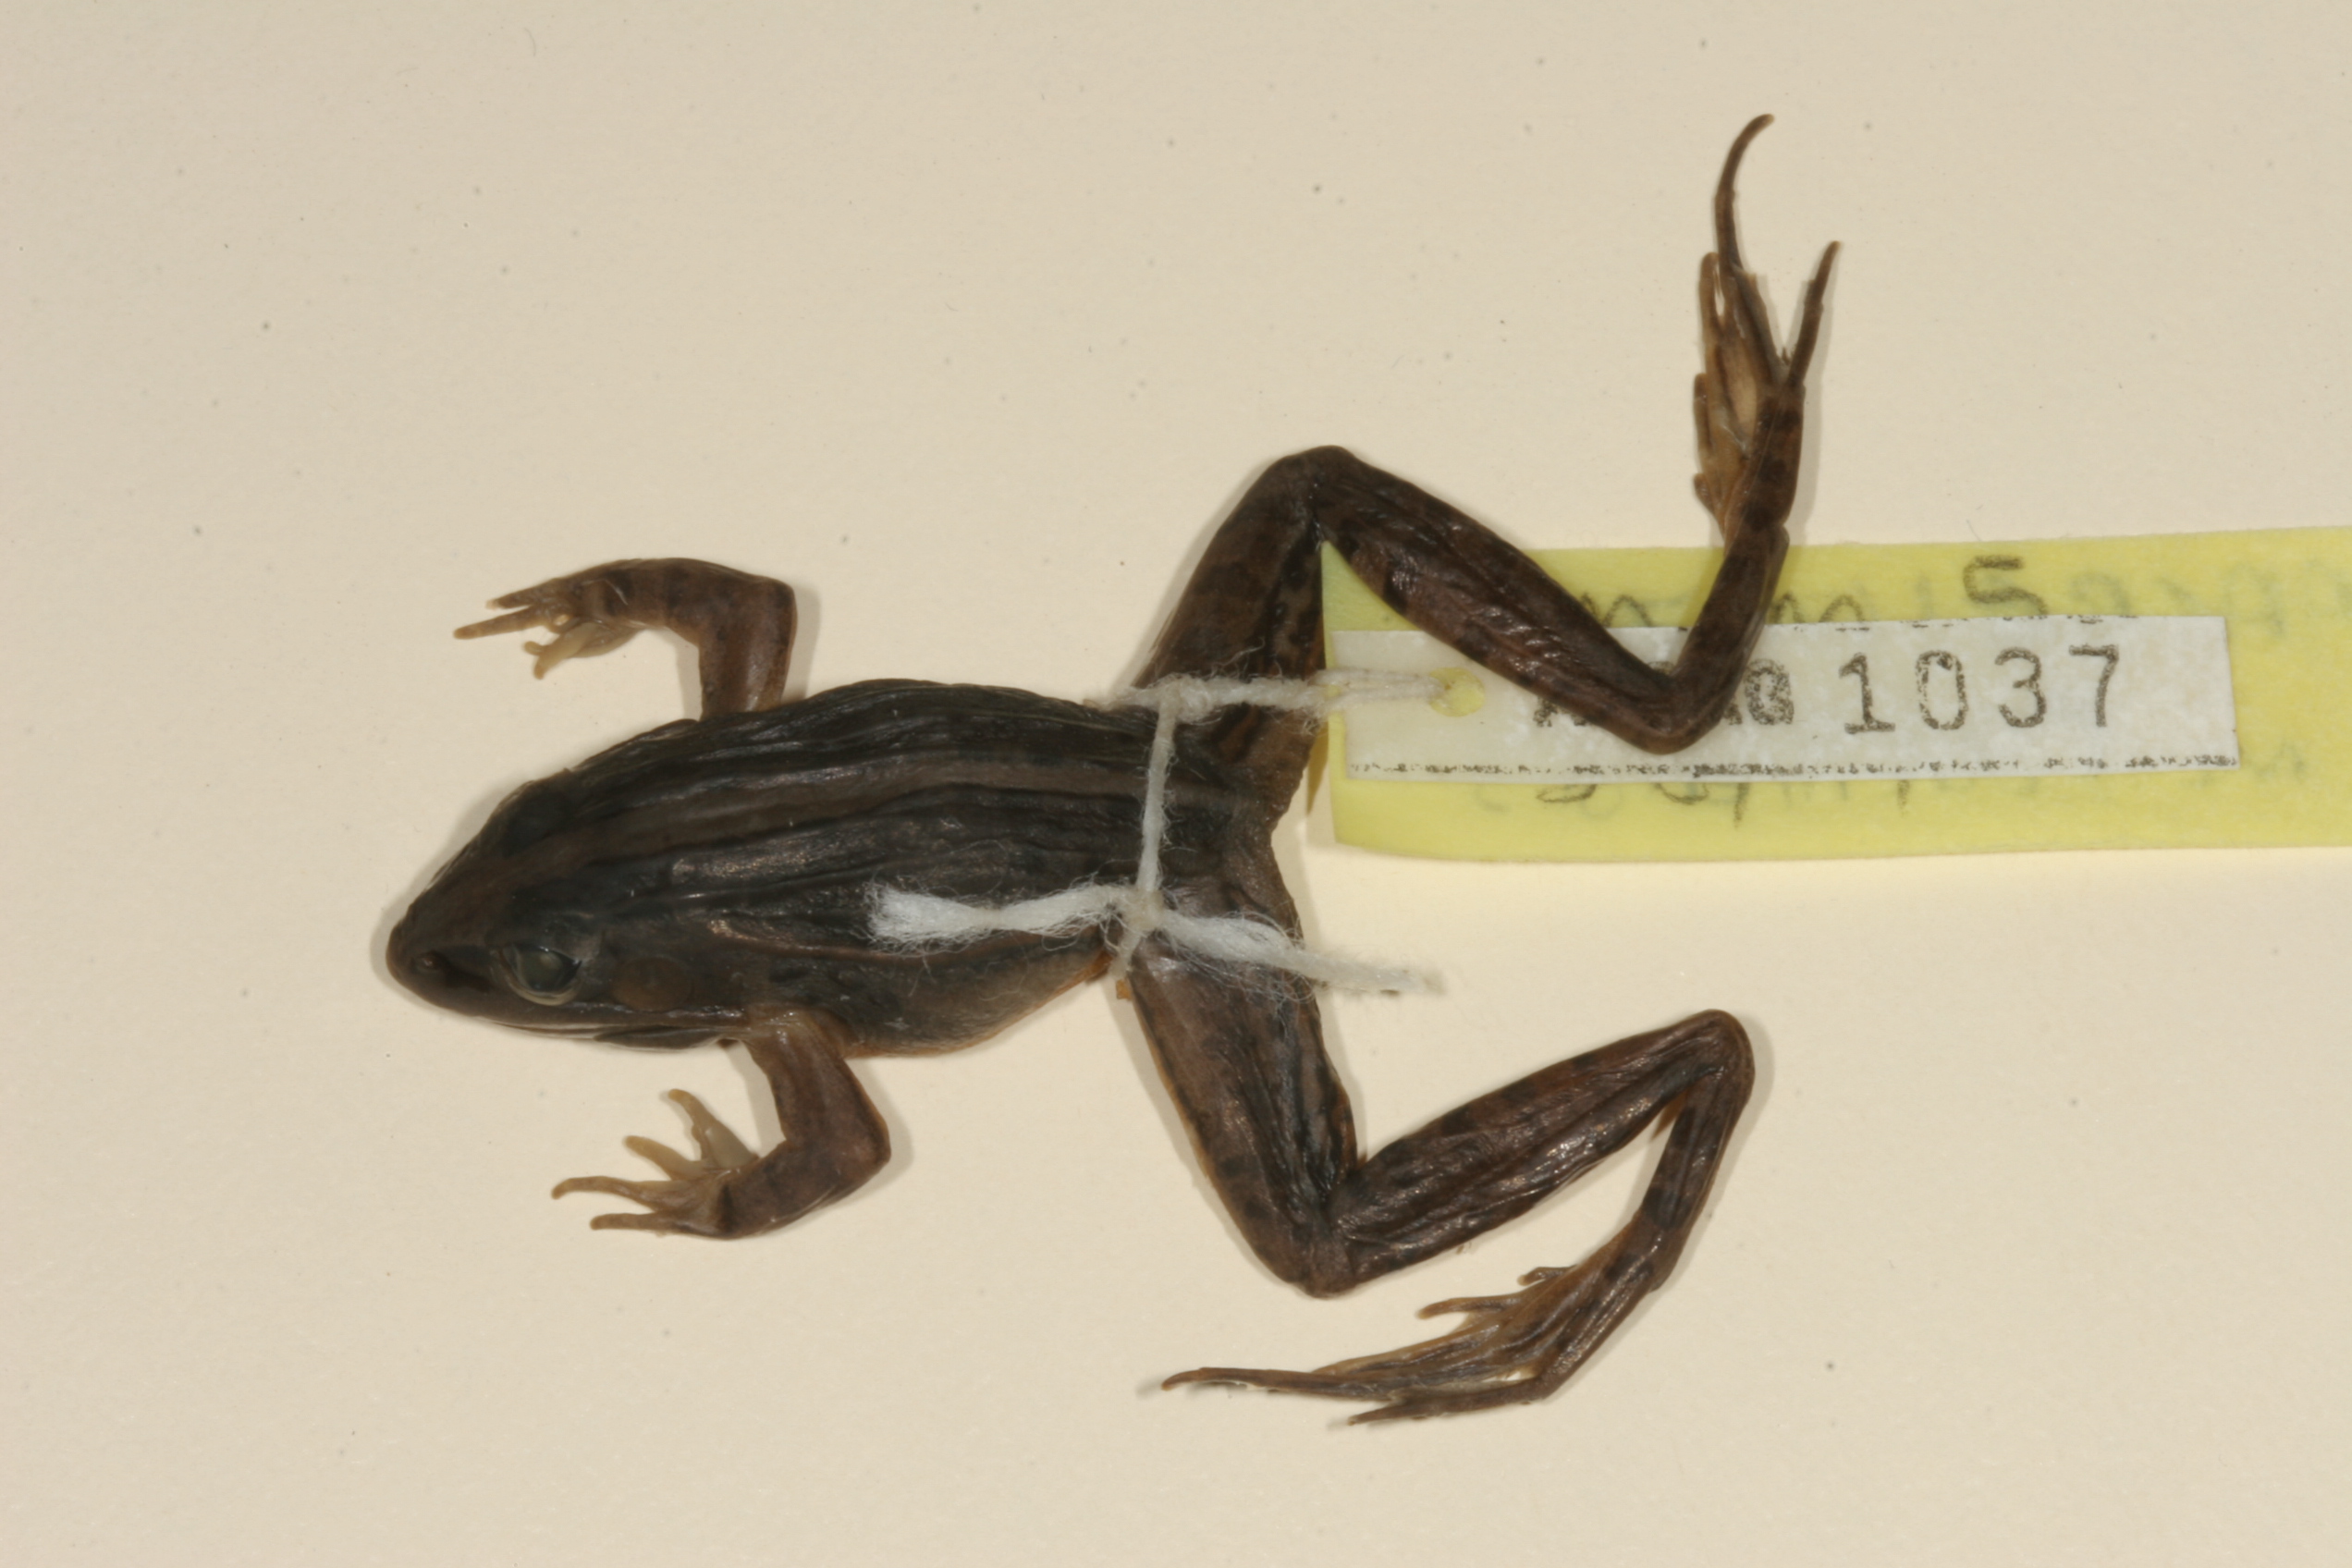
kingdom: Animalia
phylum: Chordata
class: Amphibia
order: Anura
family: Ptychadenidae
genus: Ptychadena
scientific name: Ptychadena mascareniensis
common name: Mascarene grass frog
